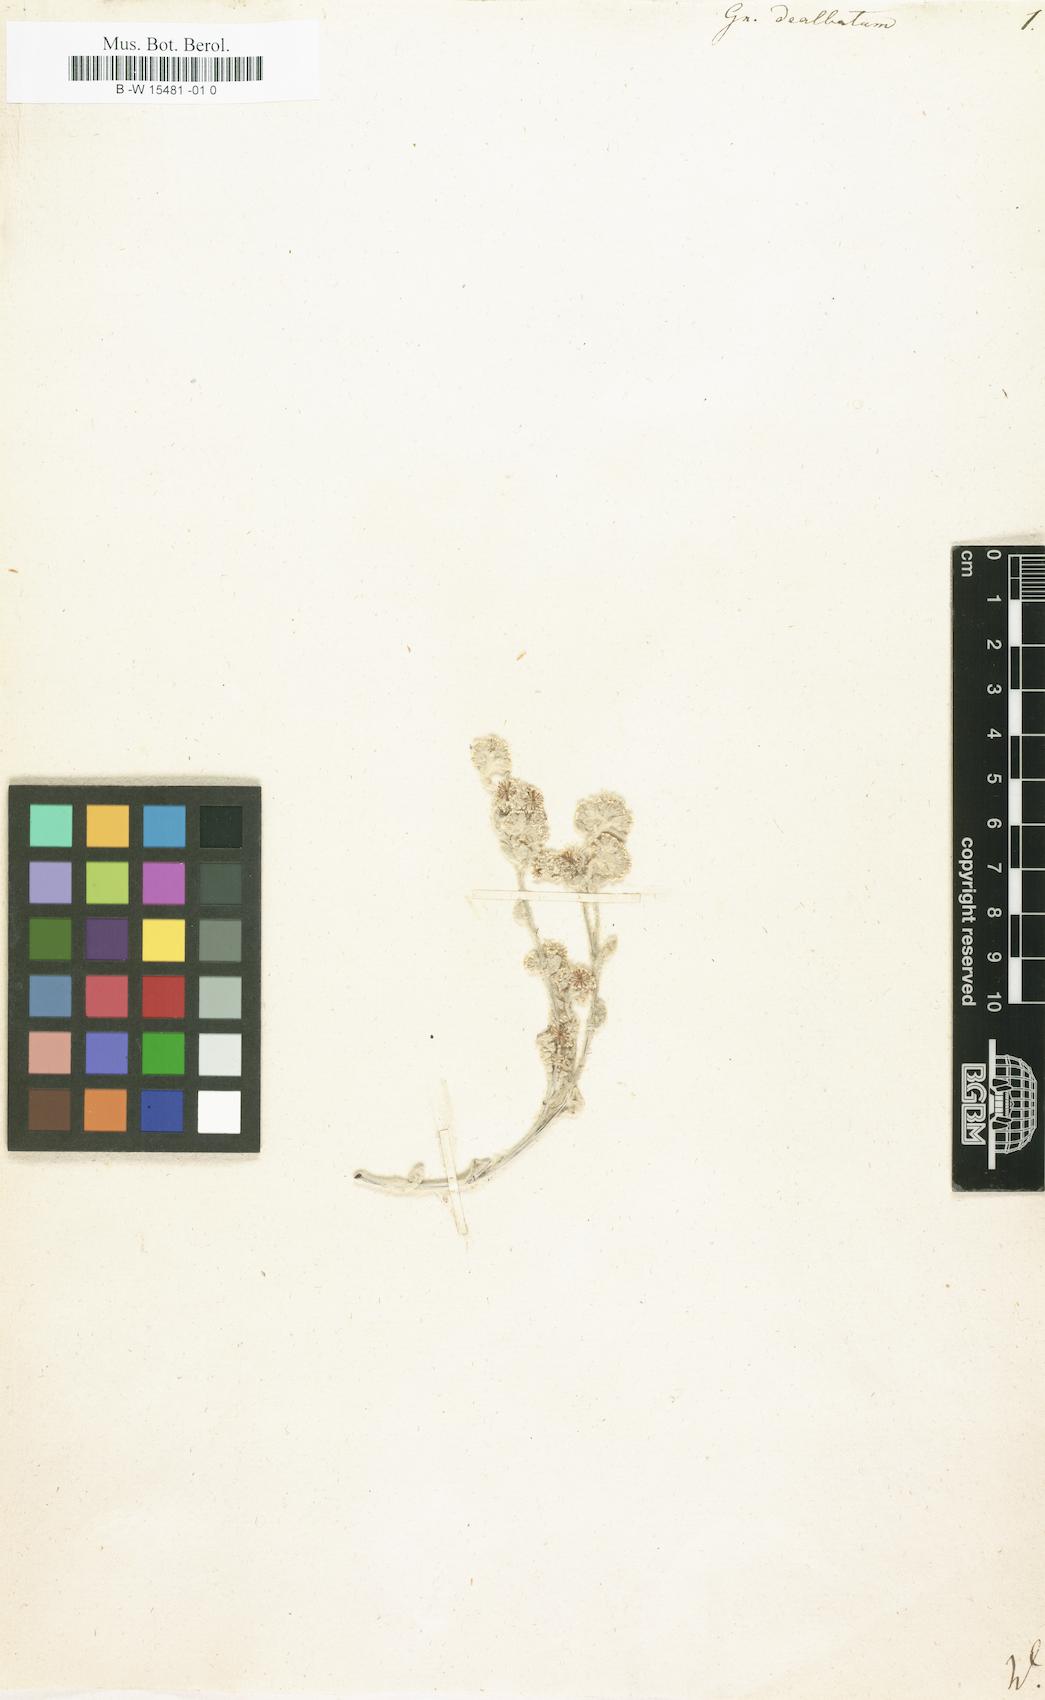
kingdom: Plantae
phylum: Tracheophyta
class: Magnoliopsida
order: Asterales
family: Asteraceae
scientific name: Asteraceae
